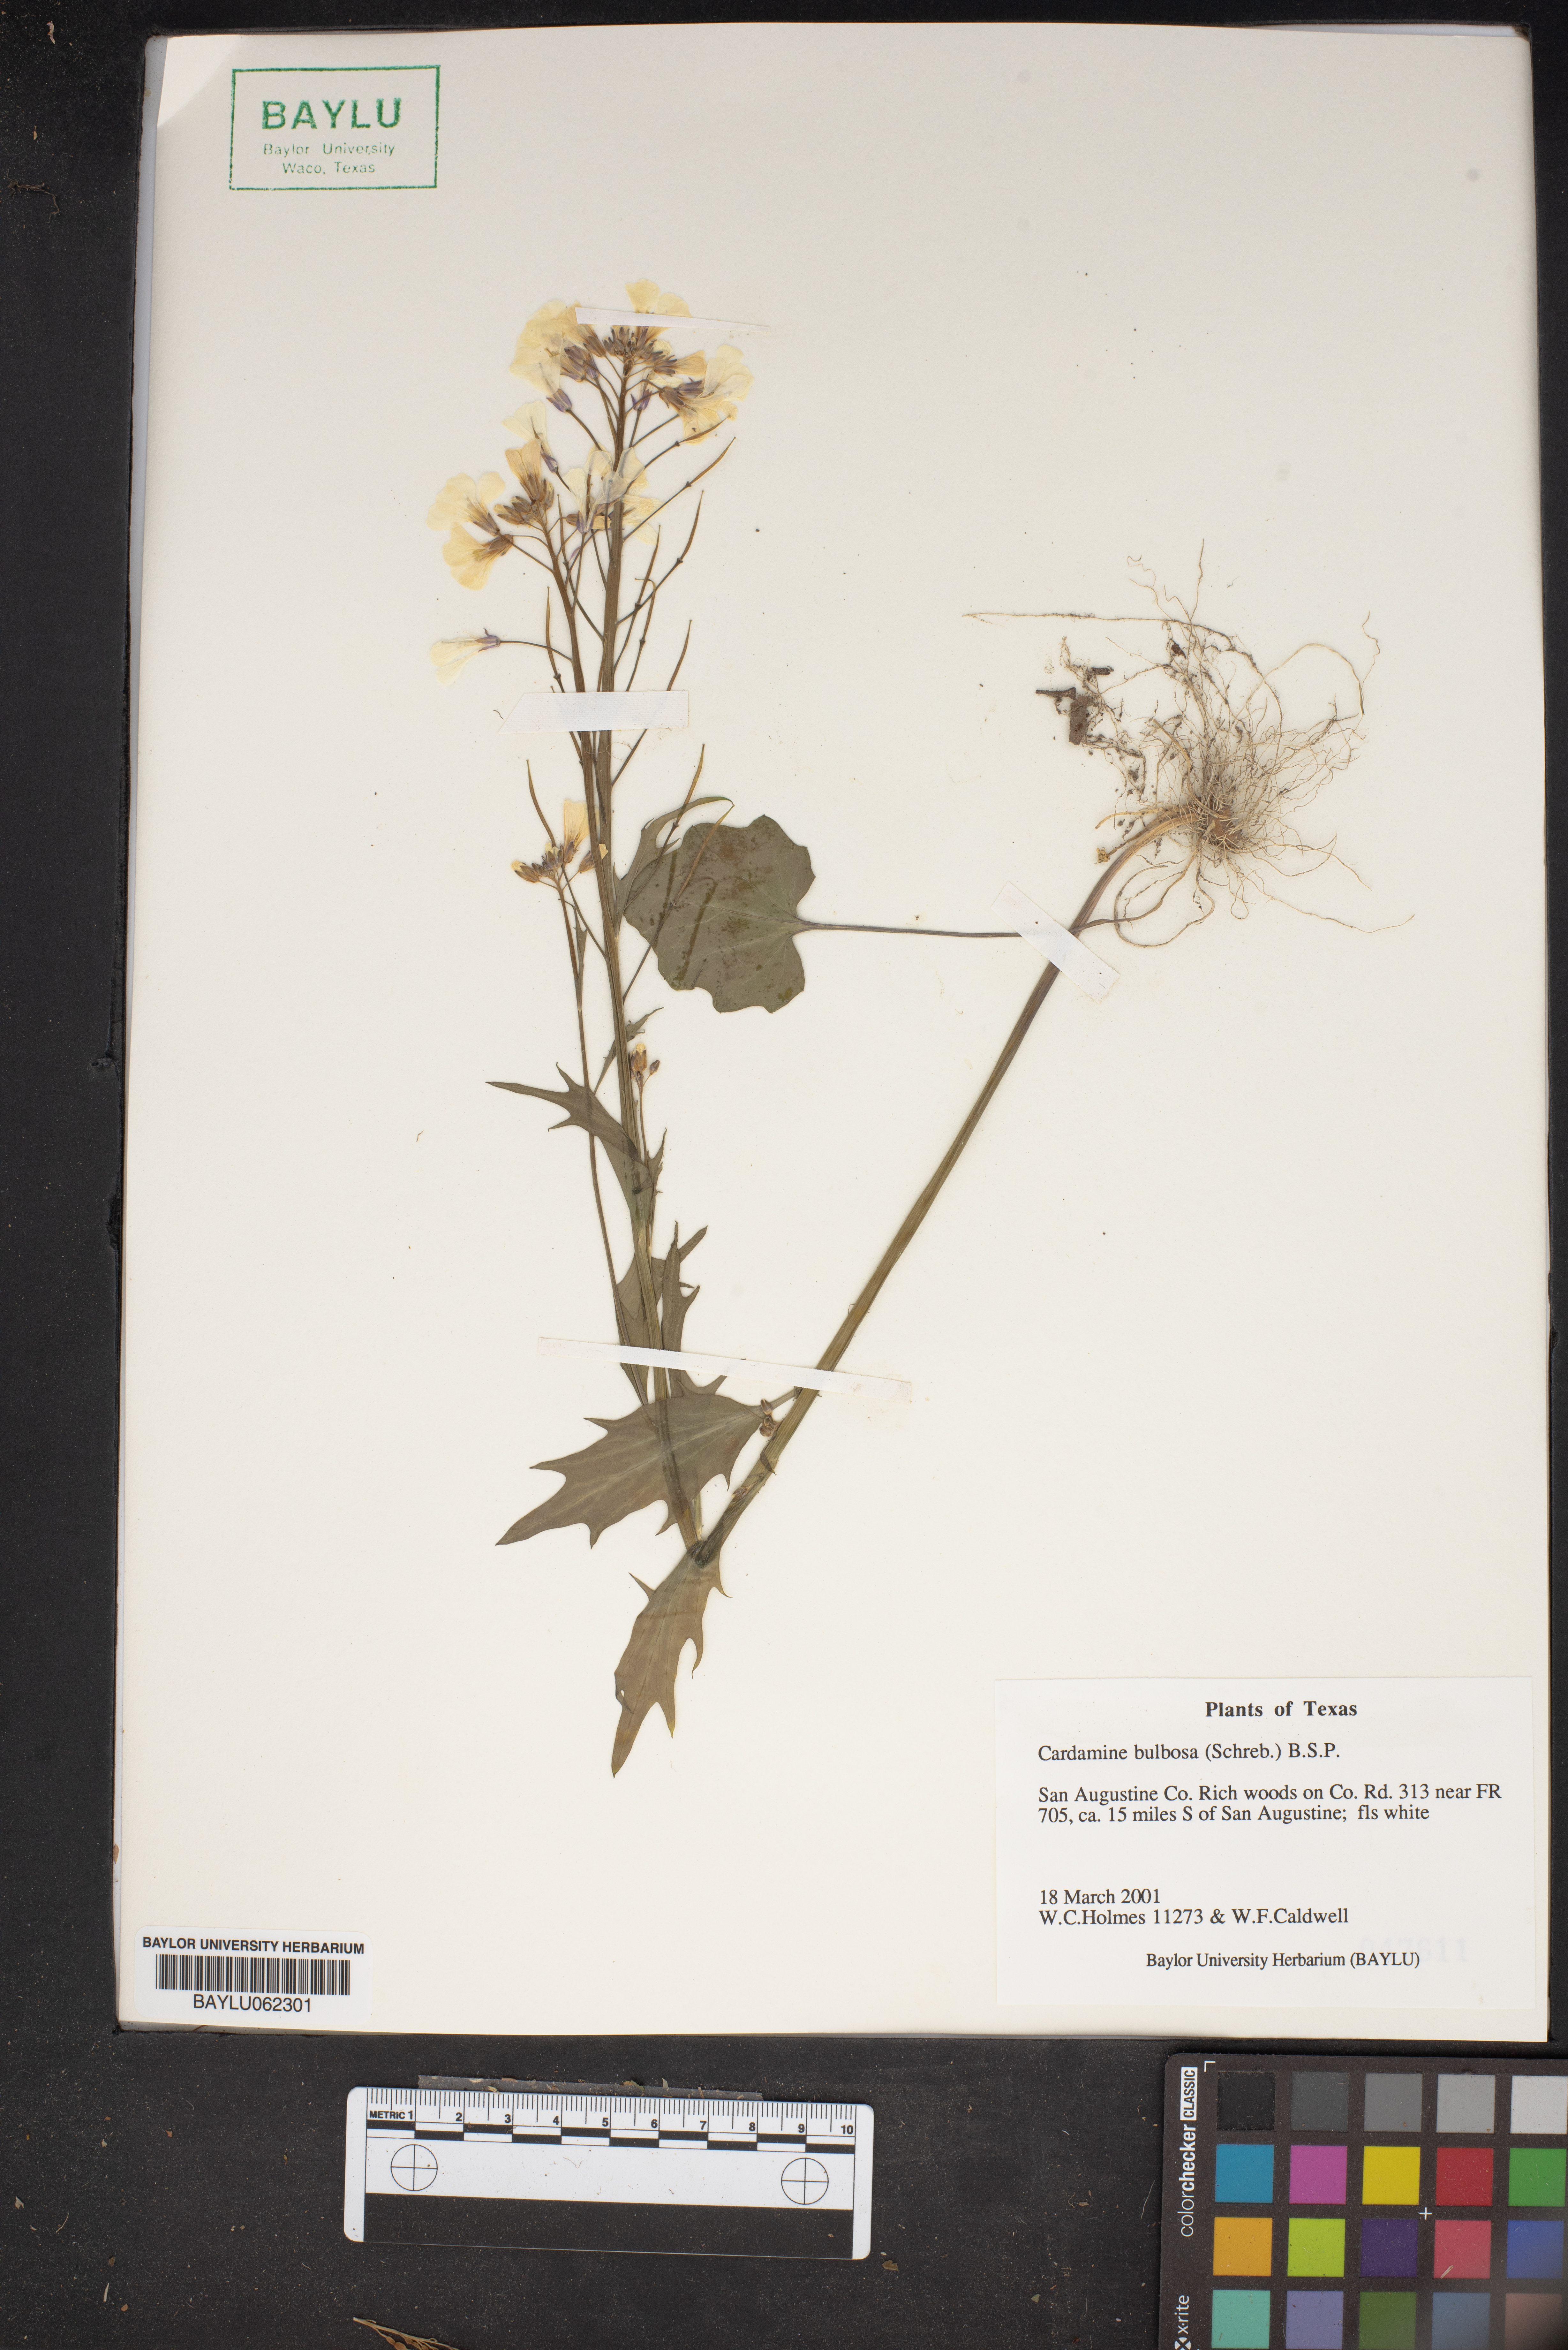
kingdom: Plantae
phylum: Tracheophyta
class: Magnoliopsida
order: Brassicales
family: Brassicaceae
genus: Cardamine
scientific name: Cardamine bulbosa
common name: Spring cress
